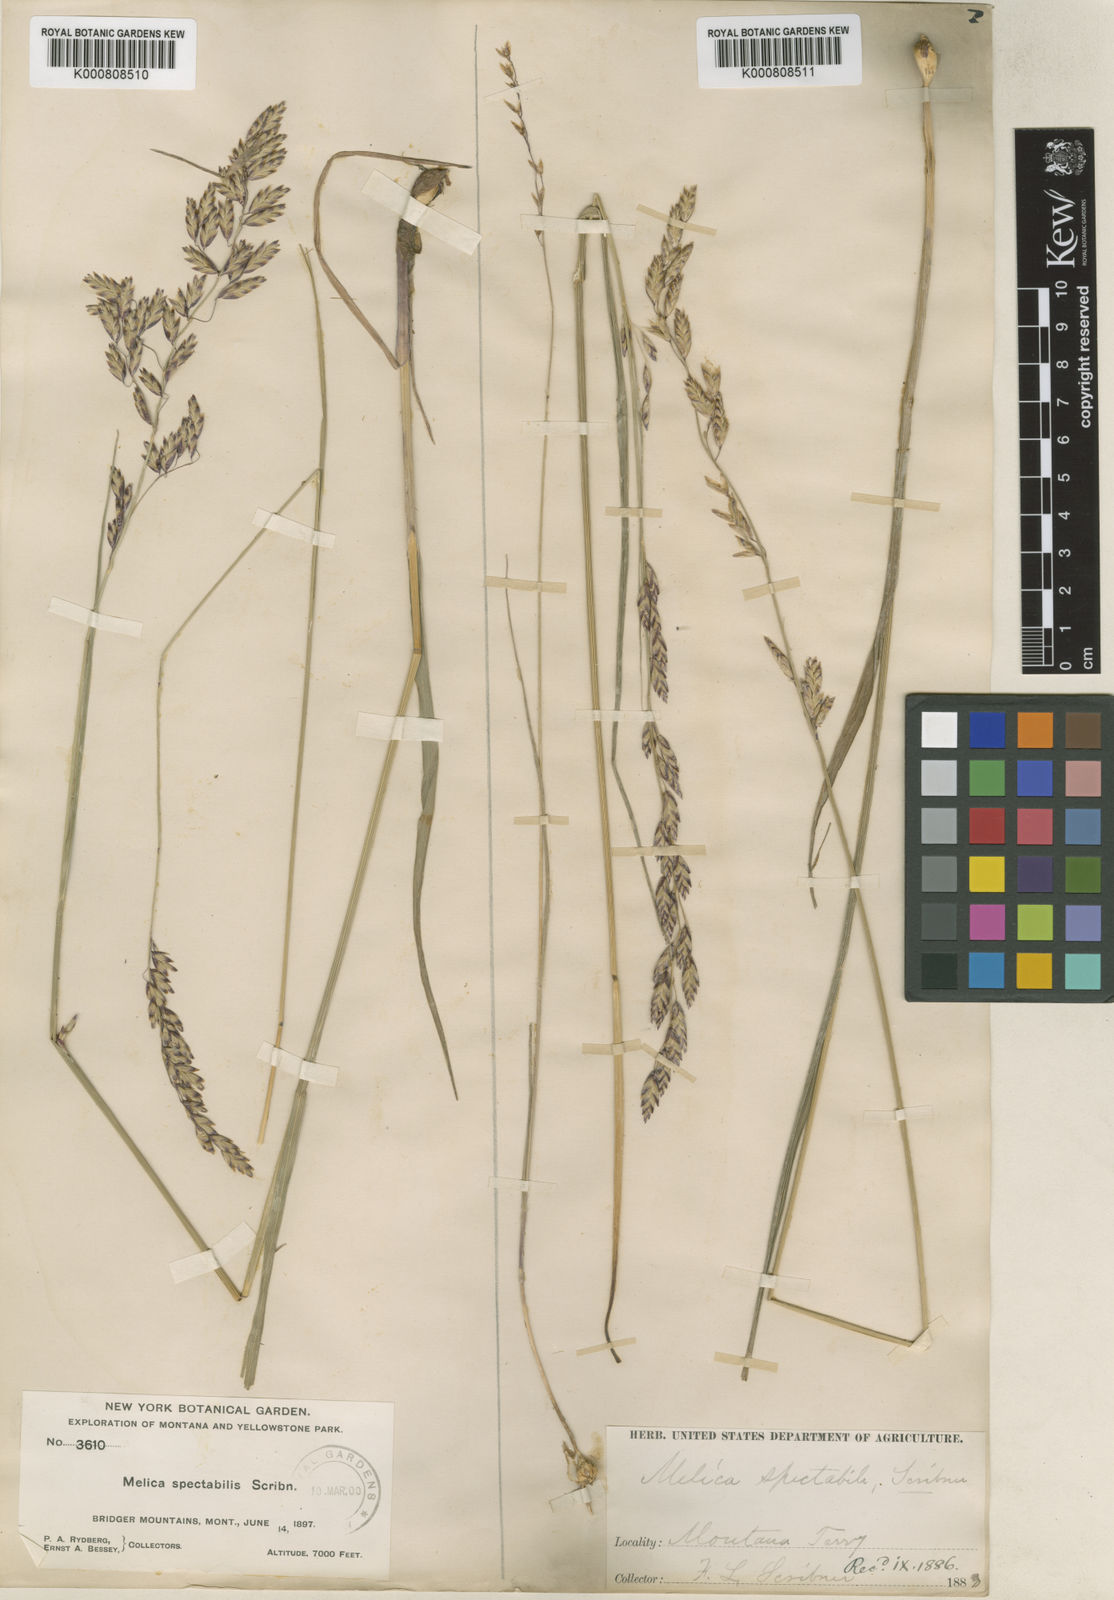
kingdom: Plantae
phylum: Tracheophyta
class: Liliopsida
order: Poales
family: Poaceae
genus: Melica
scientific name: Melica spectabilis
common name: Purple oniongrass
